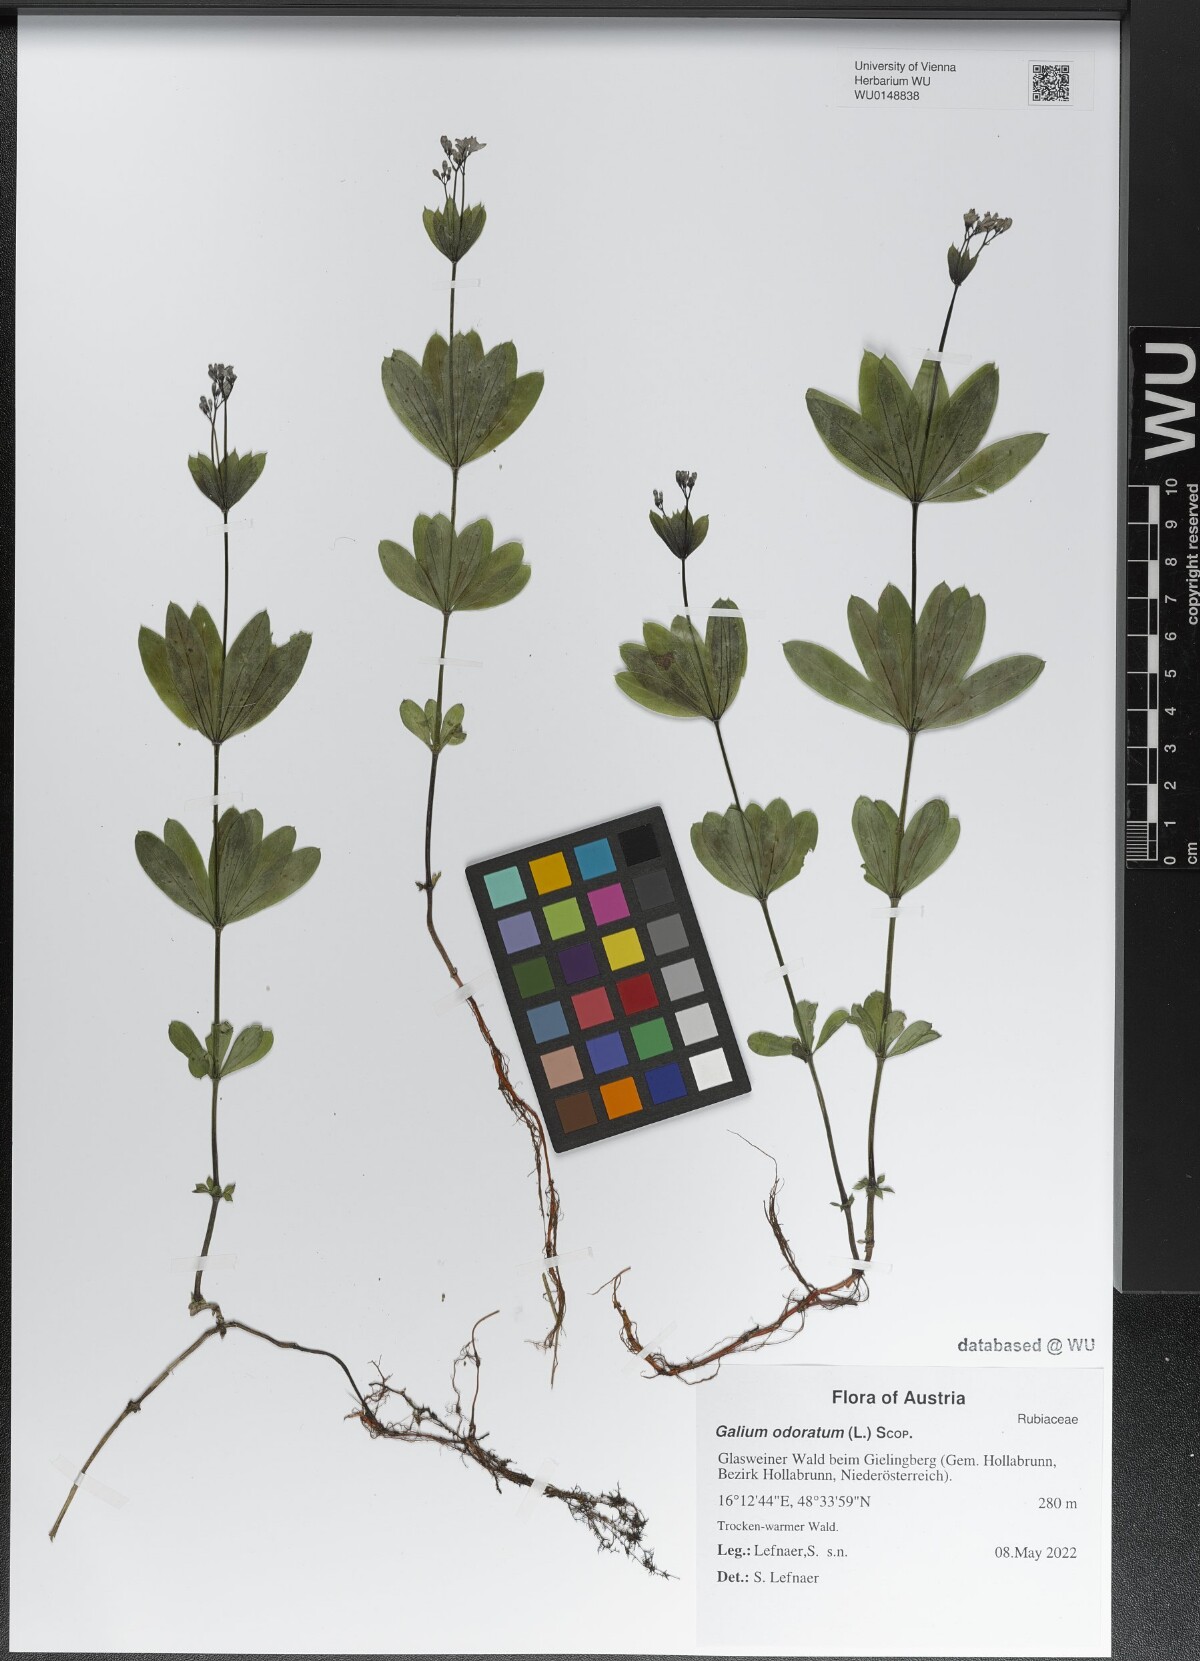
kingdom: Plantae
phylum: Tracheophyta
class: Magnoliopsida
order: Gentianales
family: Rubiaceae
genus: Galium
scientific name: Galium odoratum
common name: Sweet woodruff
